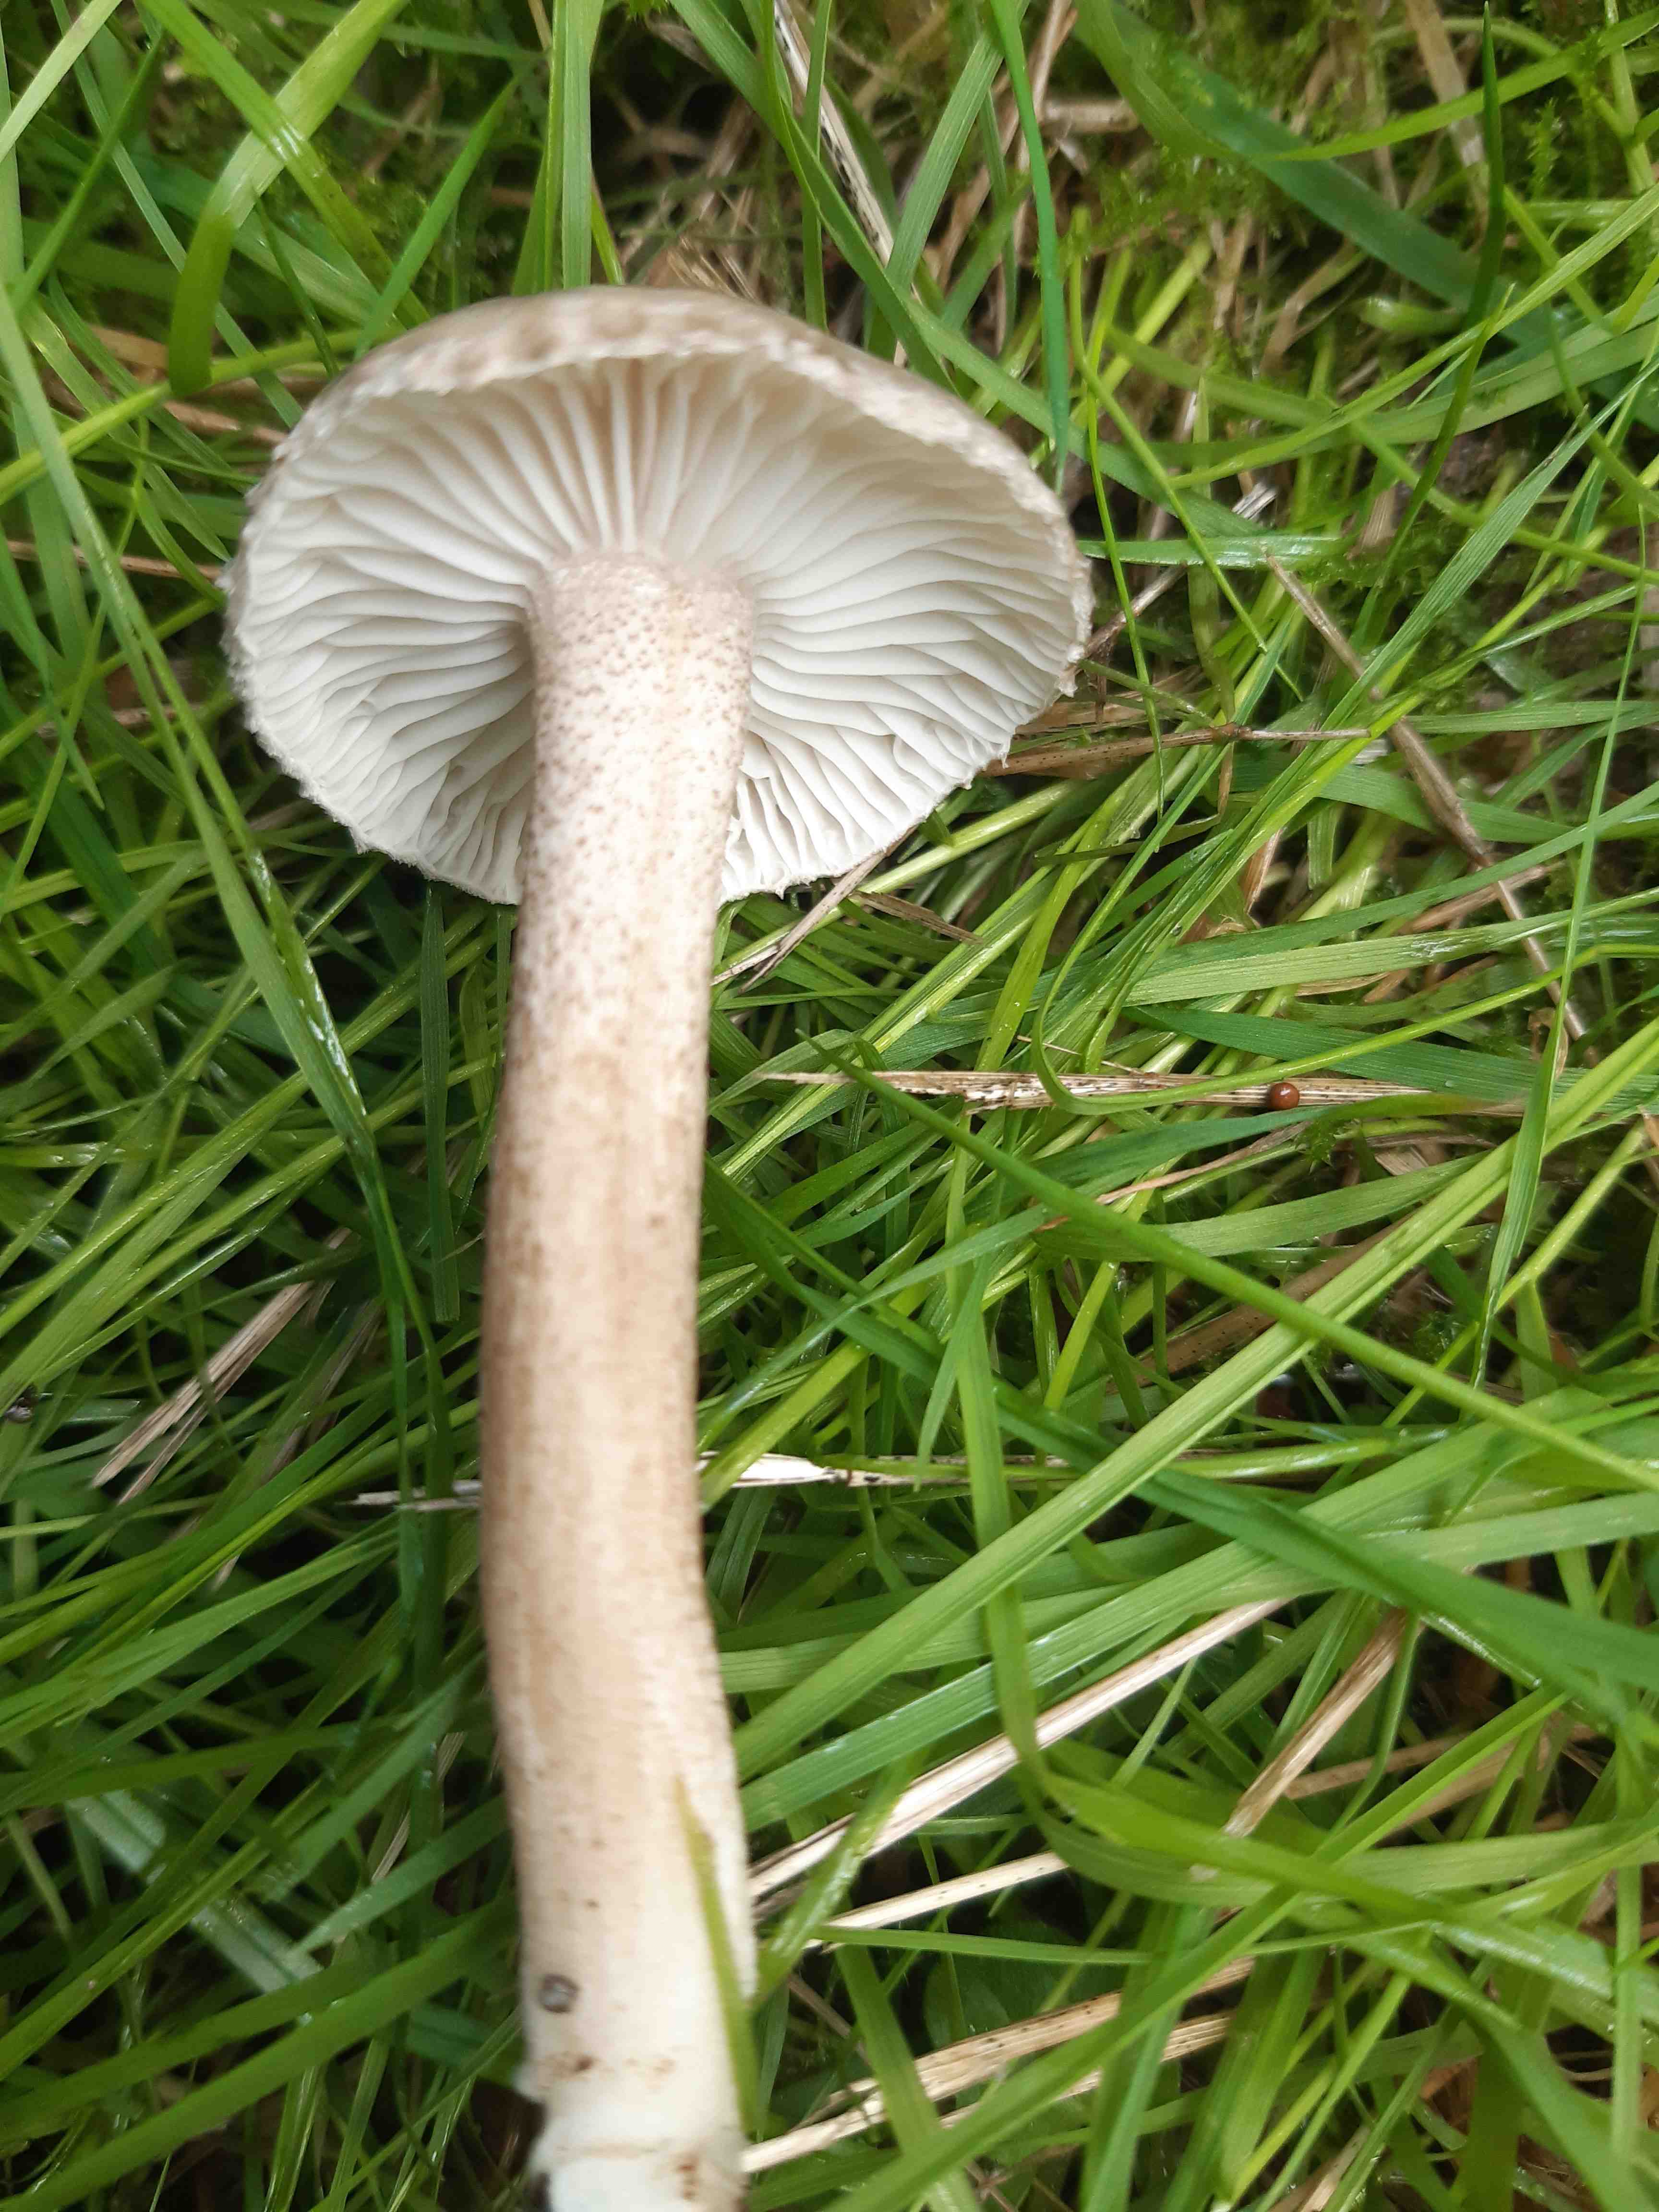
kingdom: Fungi
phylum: Basidiomycota
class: Agaricomycetes
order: Agaricales
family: Hygrophoraceae
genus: Hygrophorus
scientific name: Hygrophorus pustulatus
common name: mørkprikket sneglehat
